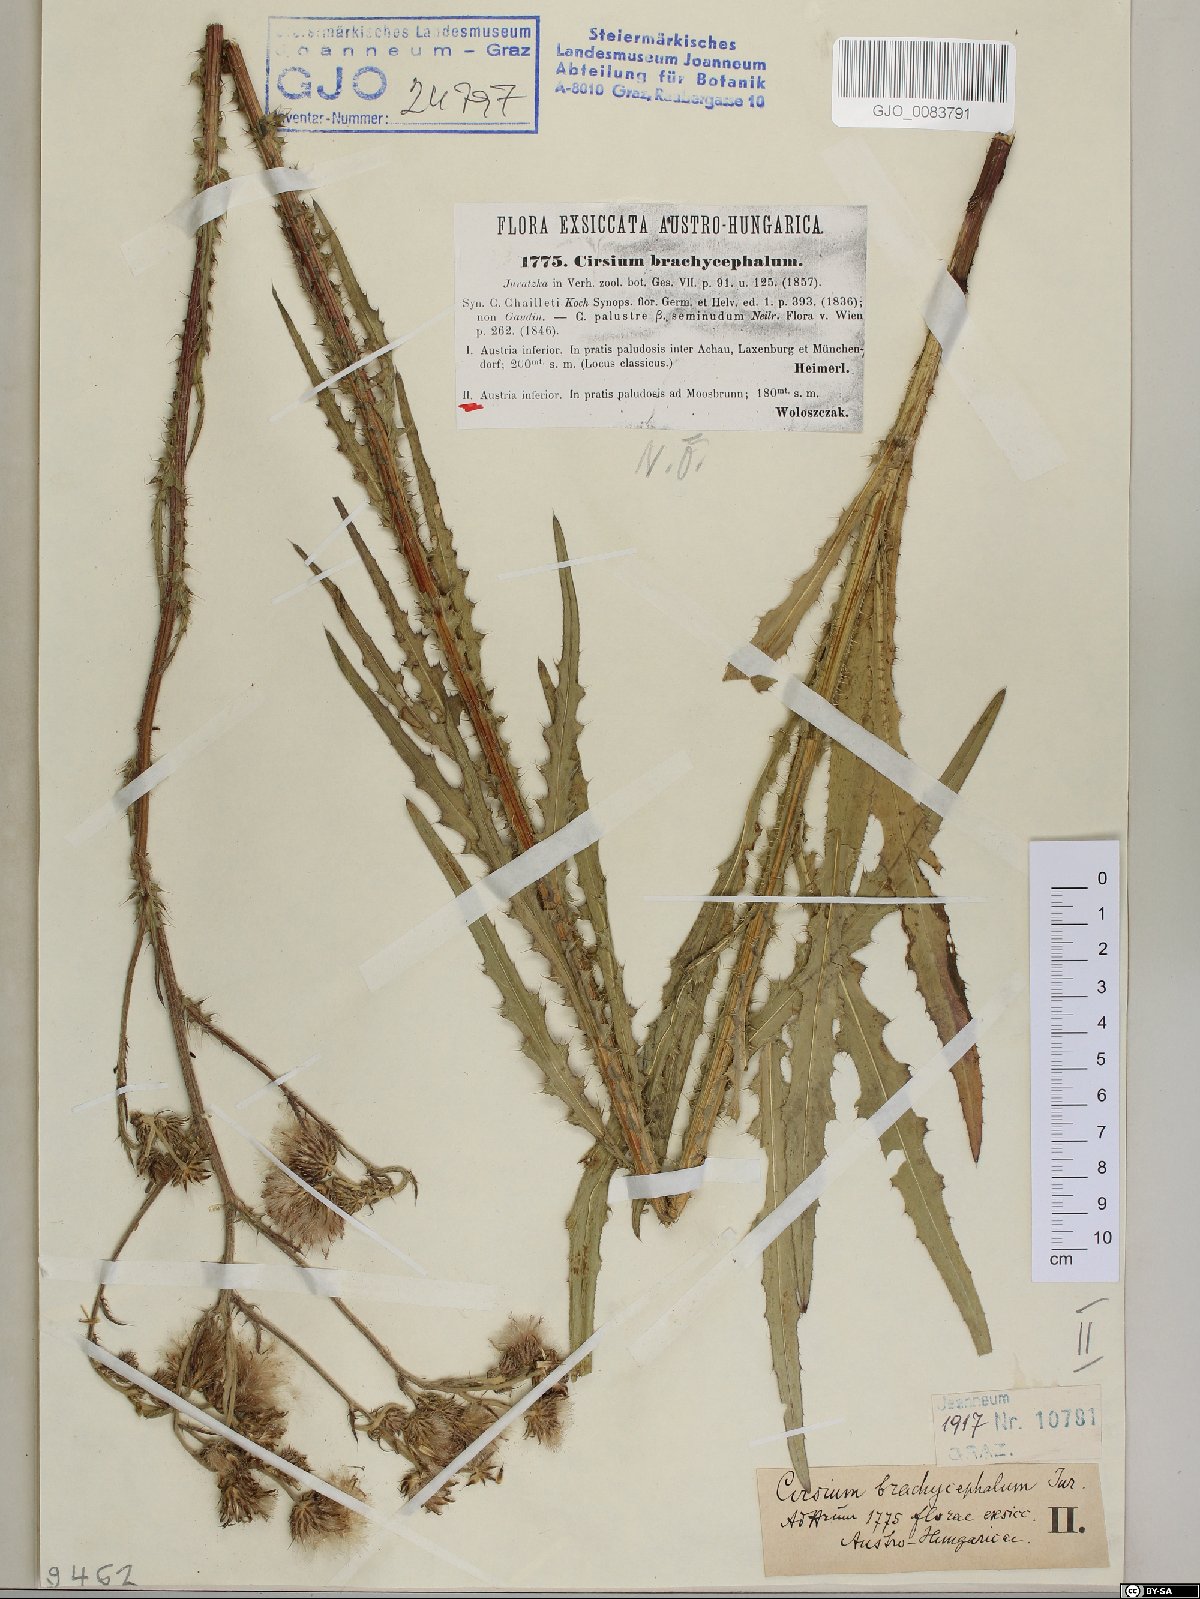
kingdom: Plantae
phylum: Tracheophyta
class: Magnoliopsida
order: Asterales
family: Asteraceae
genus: Cirsium
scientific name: Cirsium brachycephalum
